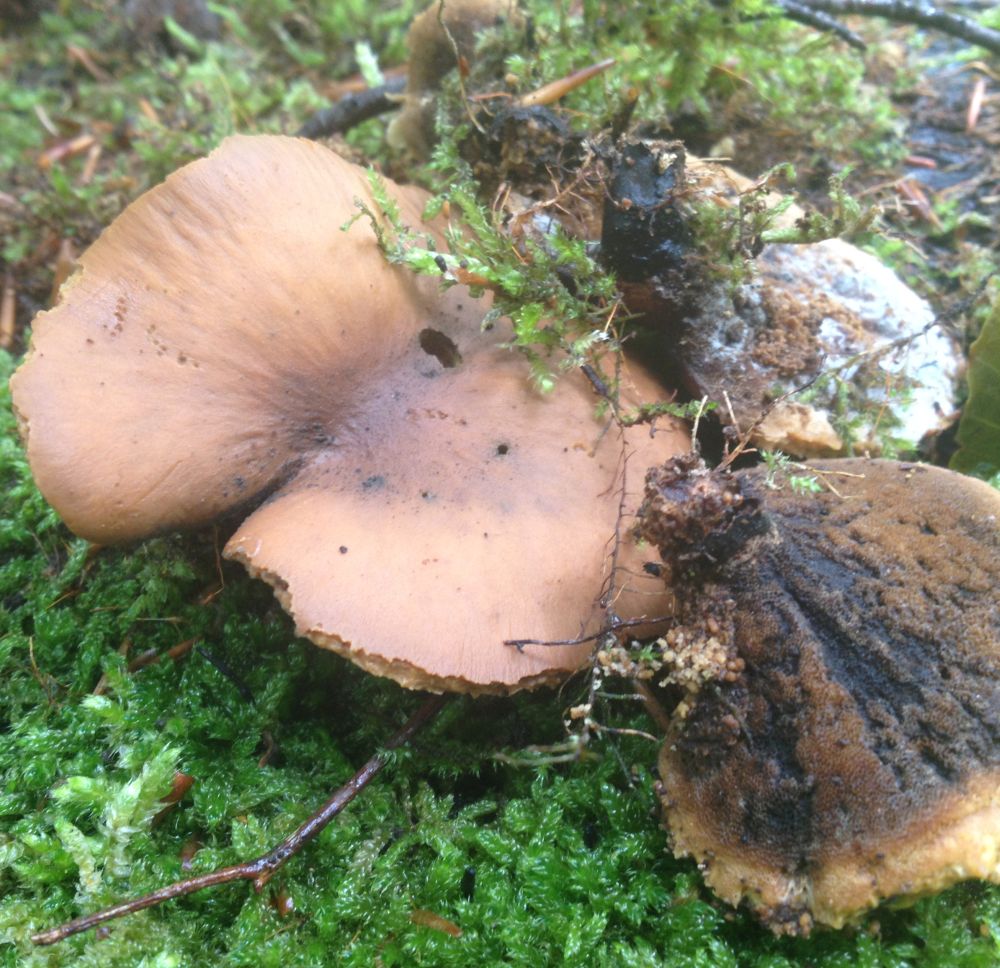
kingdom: Fungi
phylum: Basidiomycota
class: Agaricomycetes
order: Polyporales
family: Polyporaceae
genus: Cerioporus
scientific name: Cerioporus varius
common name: foranderlig stilkporesvamp
